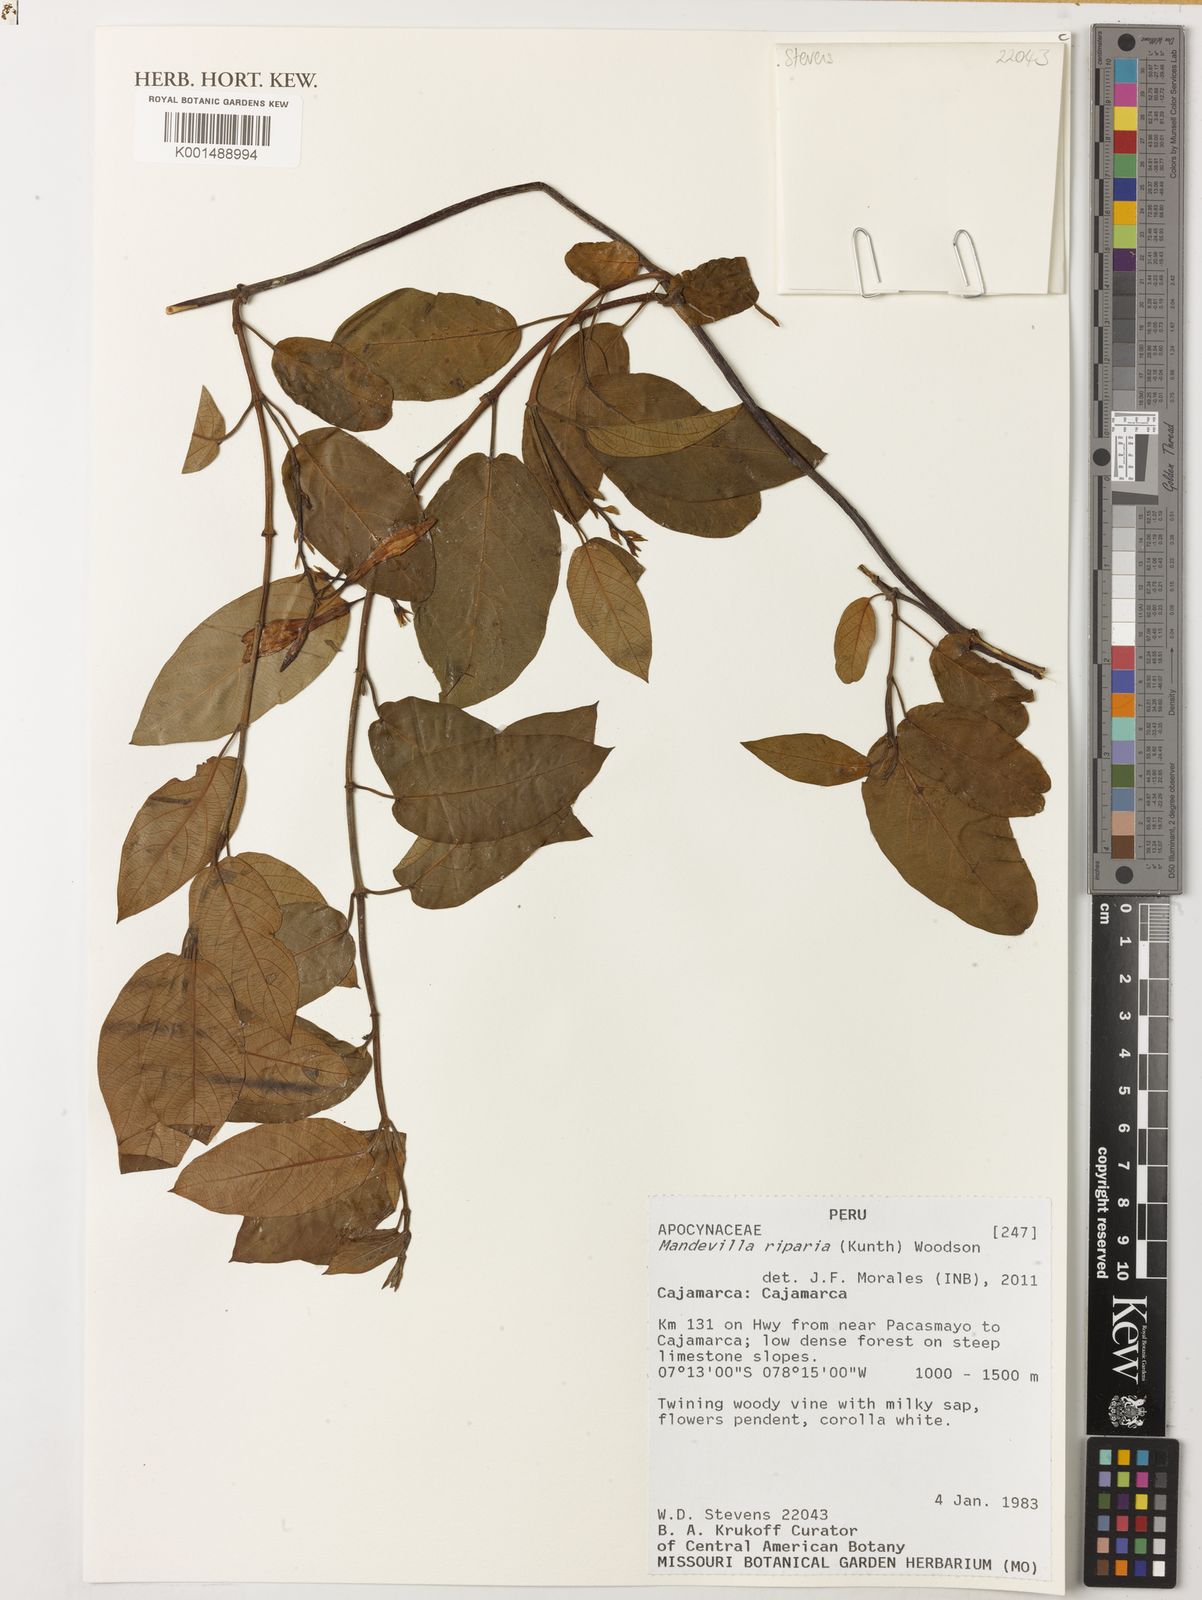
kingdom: Plantae
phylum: Tracheophyta
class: Magnoliopsida
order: Gentianales
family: Apocynaceae
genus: Mandevilla
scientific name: Mandevilla riparia
